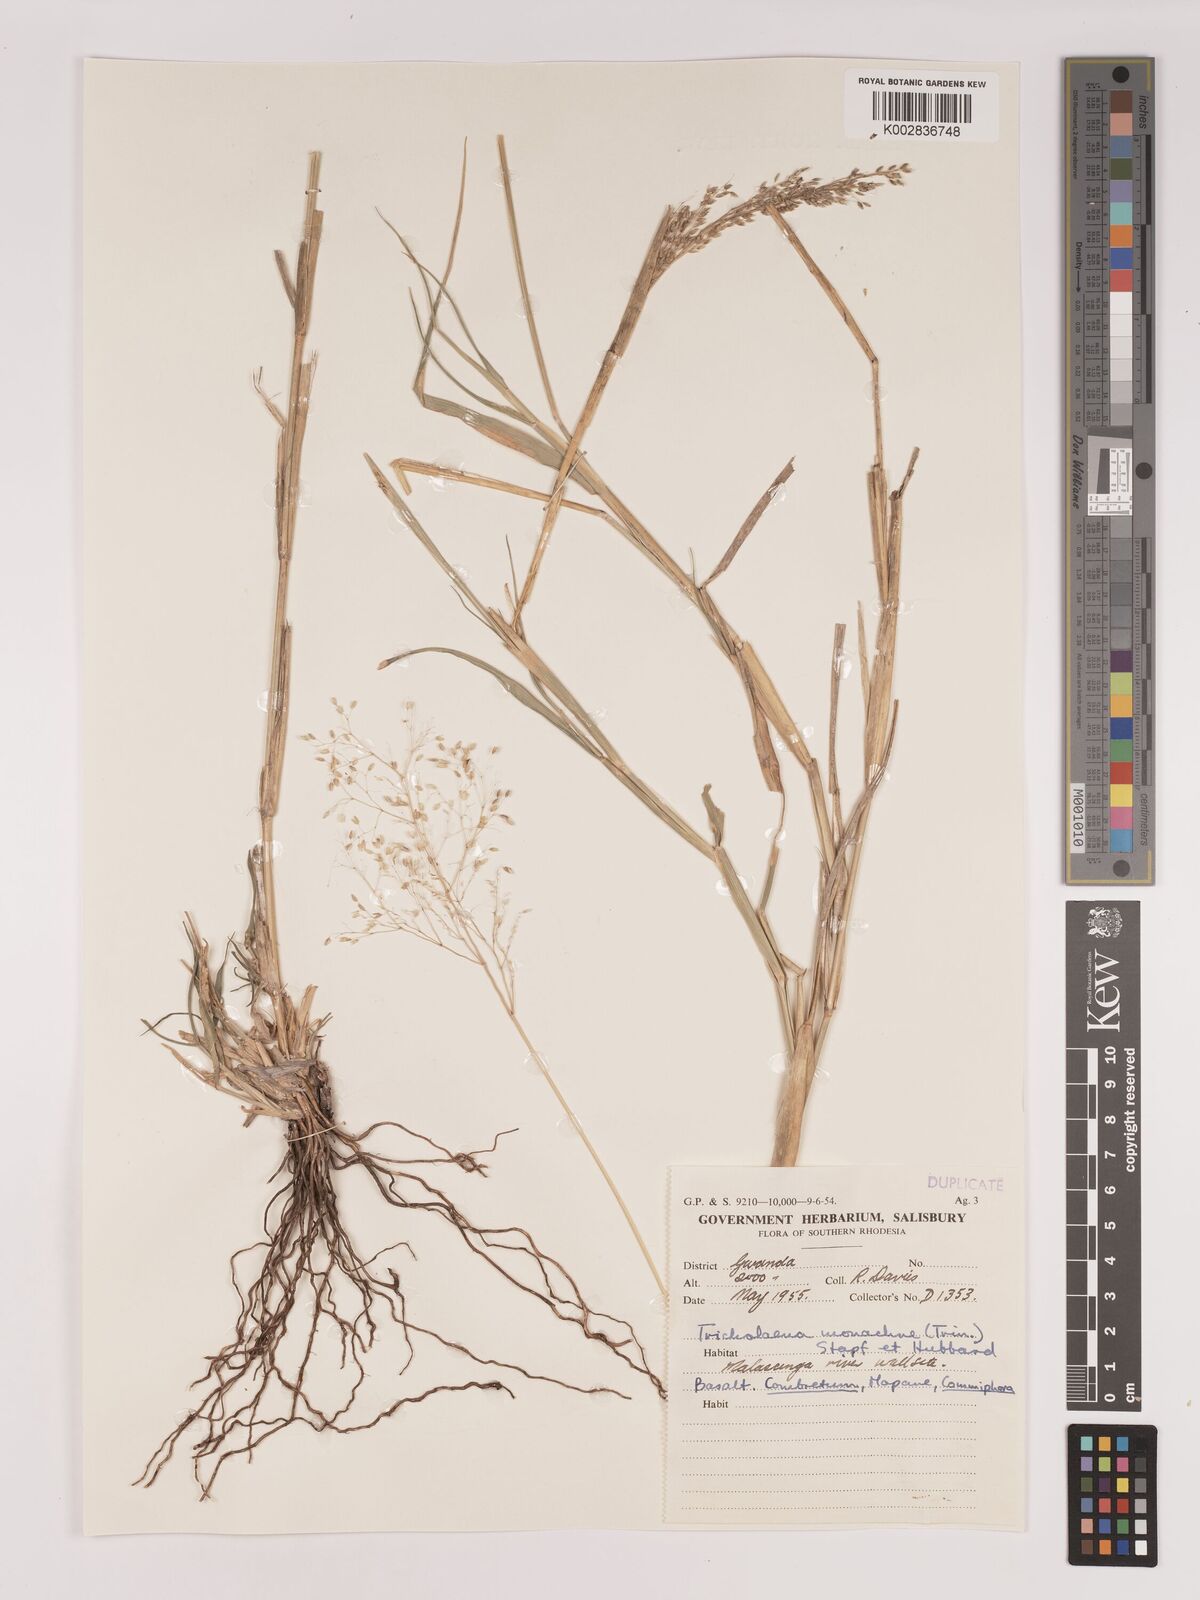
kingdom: Plantae
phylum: Tracheophyta
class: Liliopsida
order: Poales
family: Poaceae
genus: Tricholaena
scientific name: Tricholaena monachne
